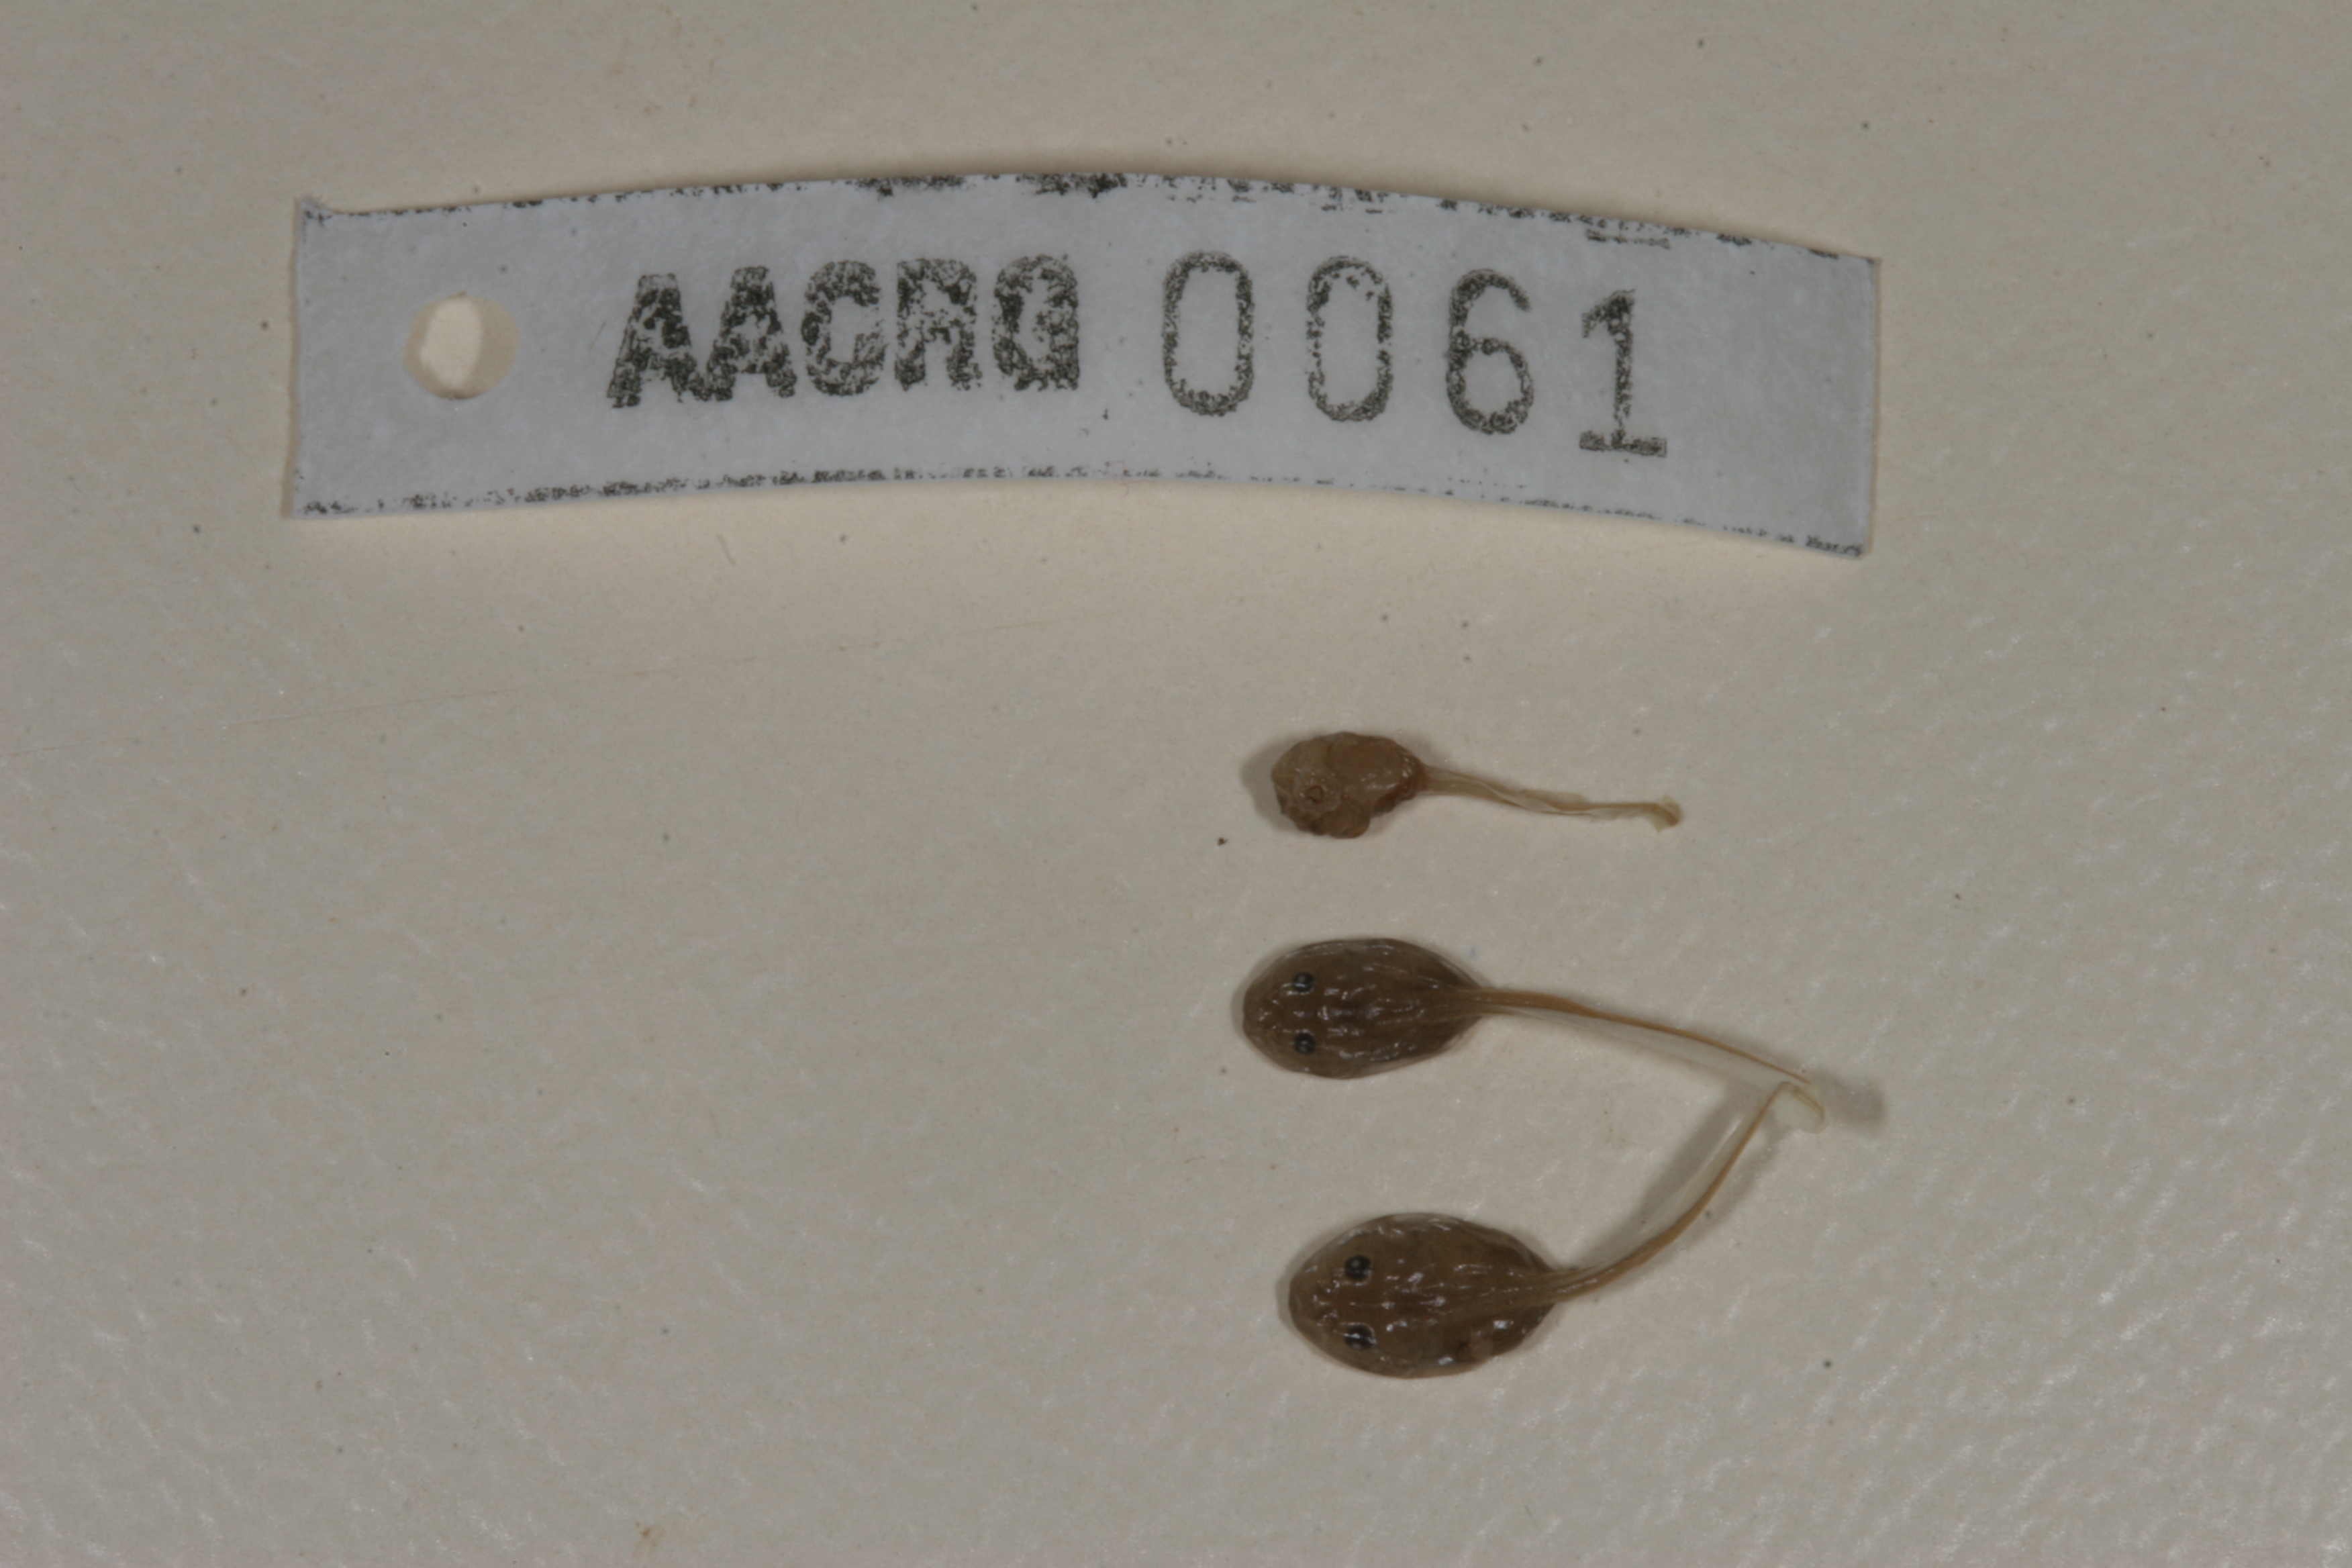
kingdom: Animalia
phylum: Chordata
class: Amphibia
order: Anura
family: Bufonidae
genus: Sclerophrys
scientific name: Sclerophrys poweri
